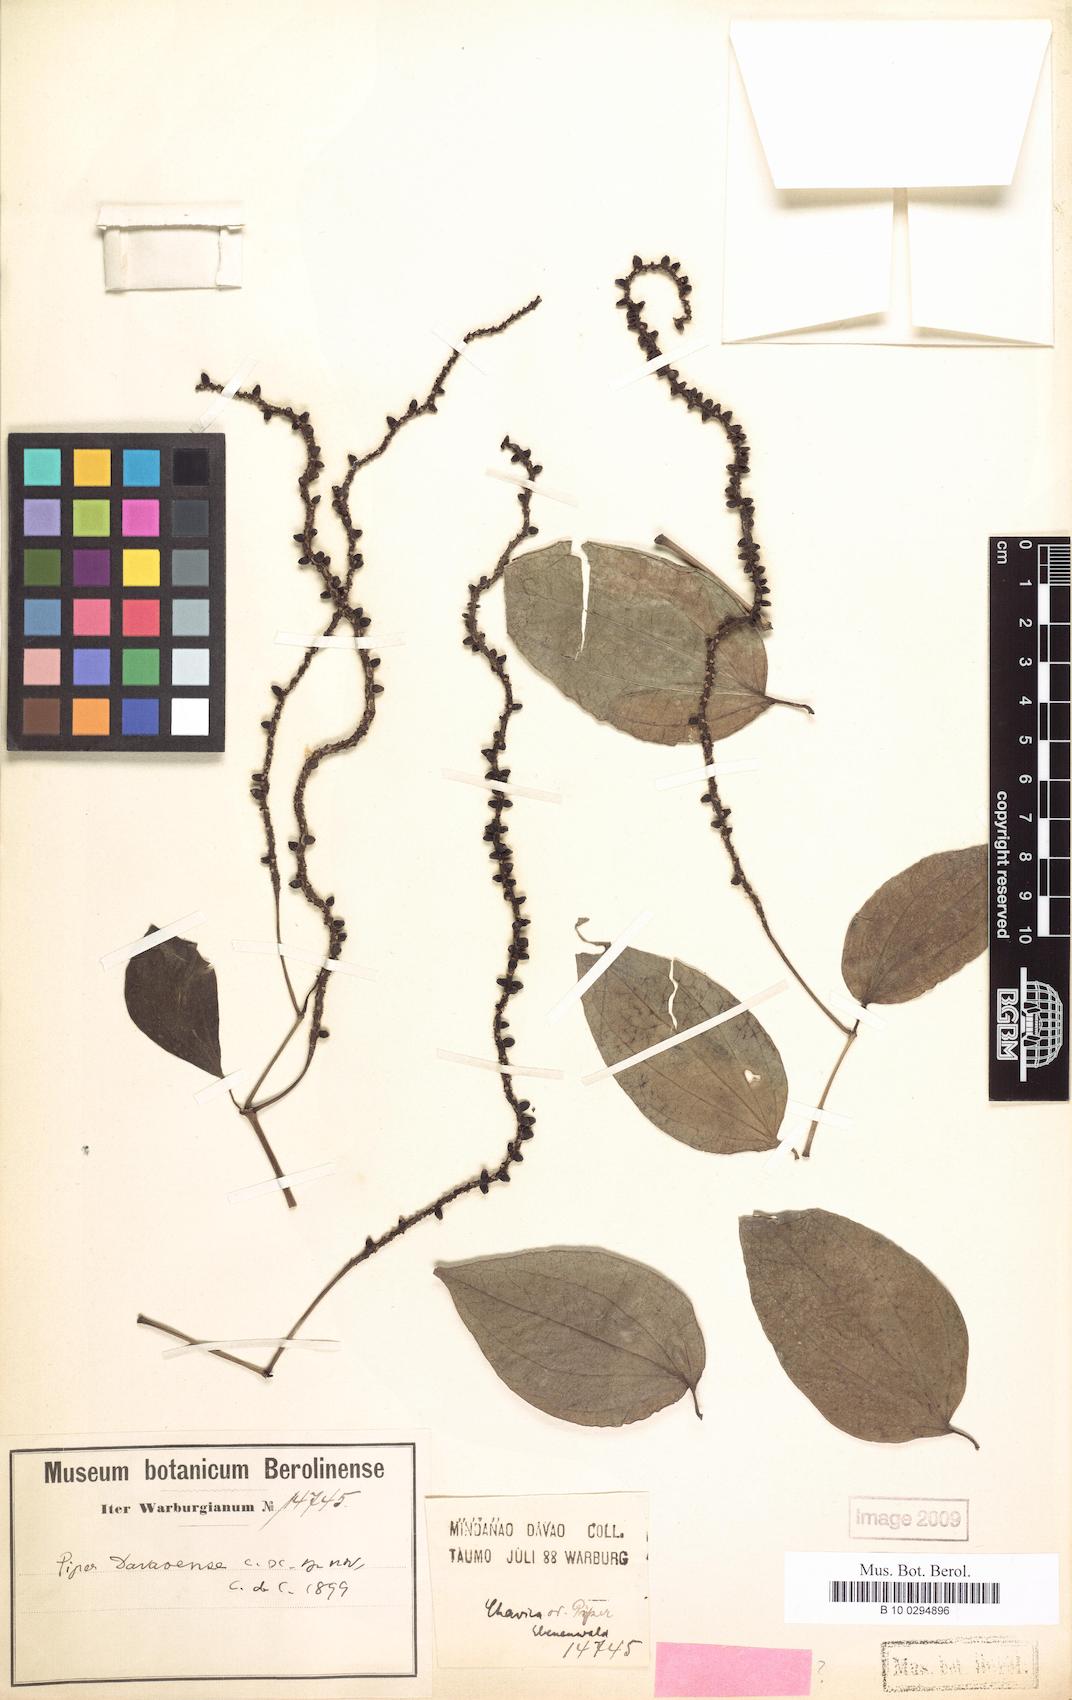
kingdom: Plantae
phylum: Tracheophyta
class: Magnoliopsida
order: Piperales
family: Piperaceae
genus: Piper
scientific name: Piper davaoense
